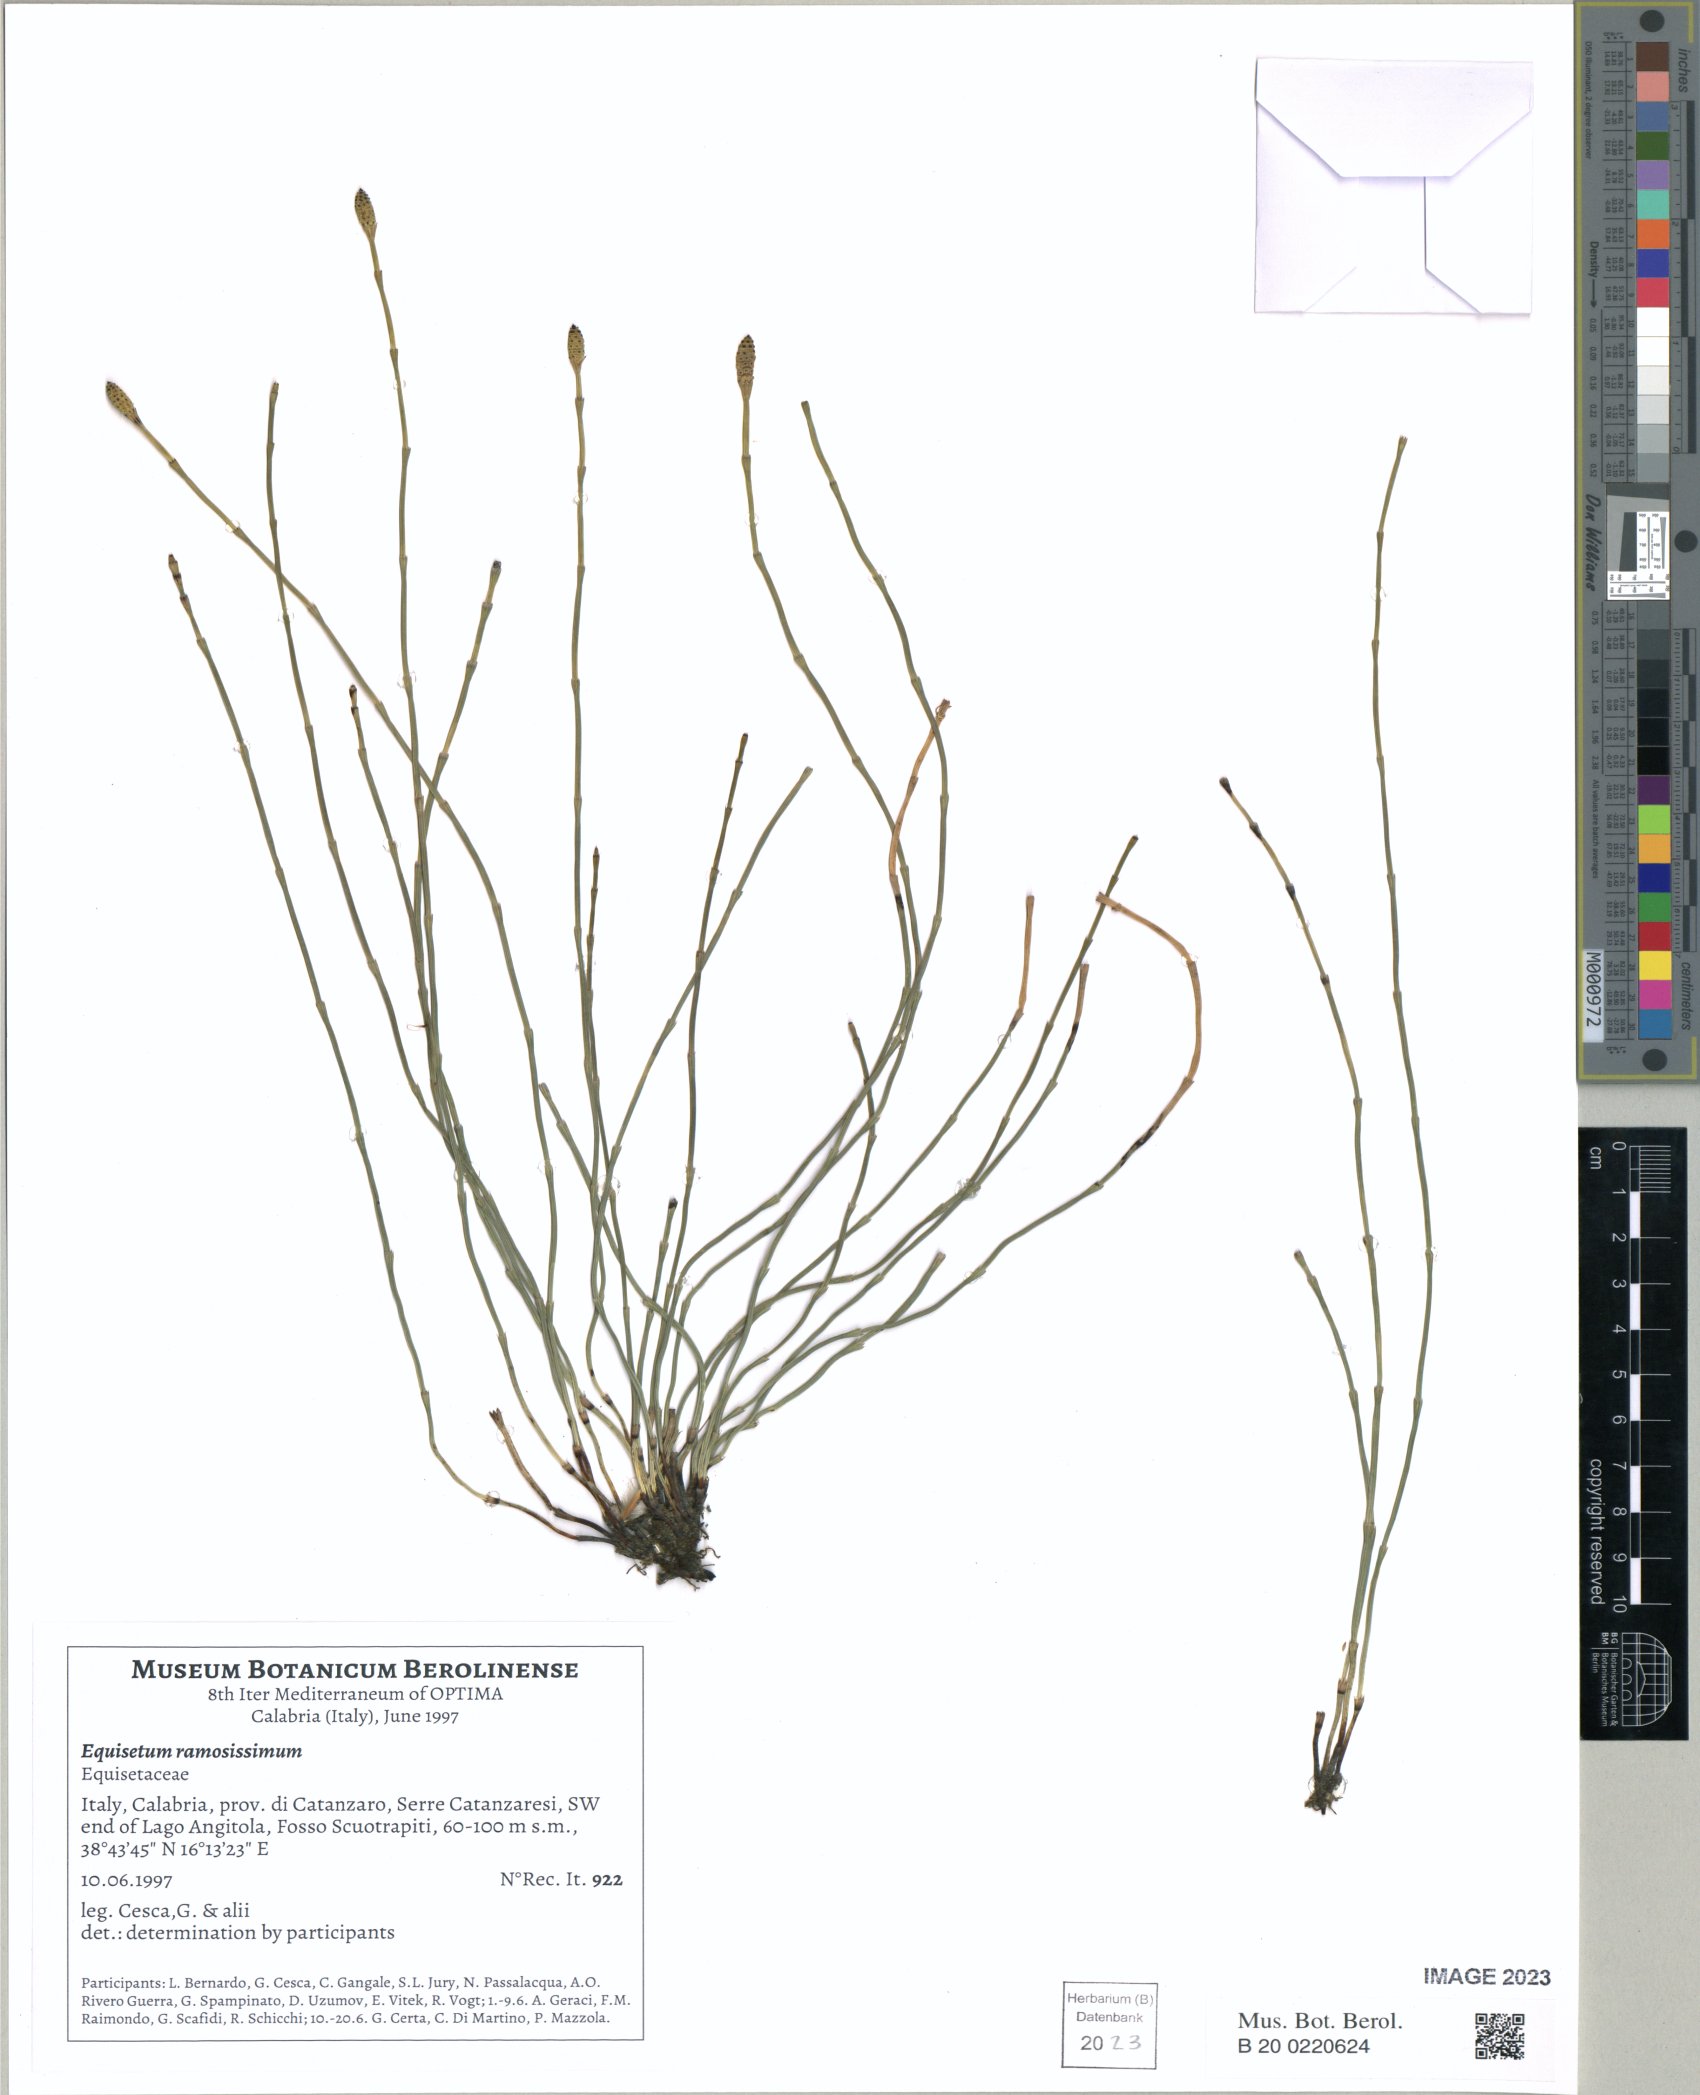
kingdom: Plantae
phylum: Tracheophyta
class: Polypodiopsida
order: Equisetales
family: Equisetaceae
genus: Equisetum
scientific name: Equisetum ramosissimum
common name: Branched horsetail
